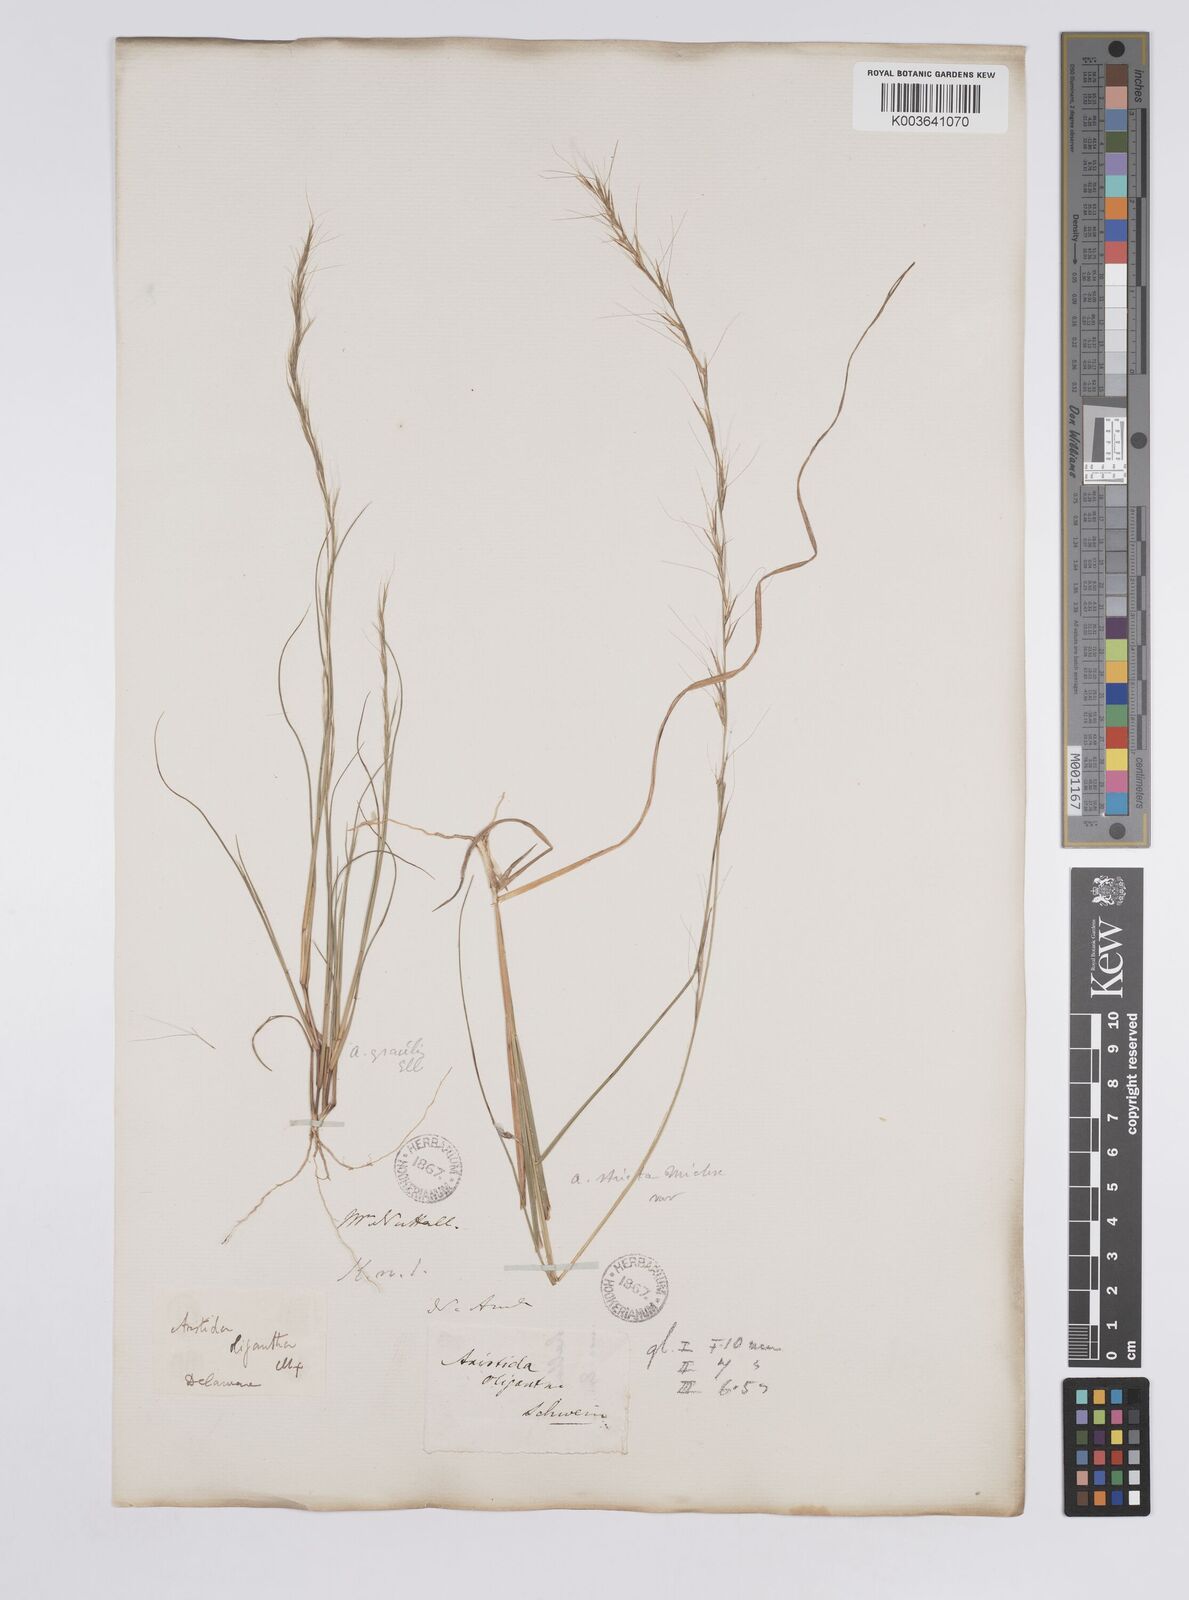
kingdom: Plantae
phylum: Tracheophyta
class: Liliopsida
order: Poales
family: Poaceae
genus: Aristida
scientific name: Aristida purpurascens
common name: Arrow-feather
